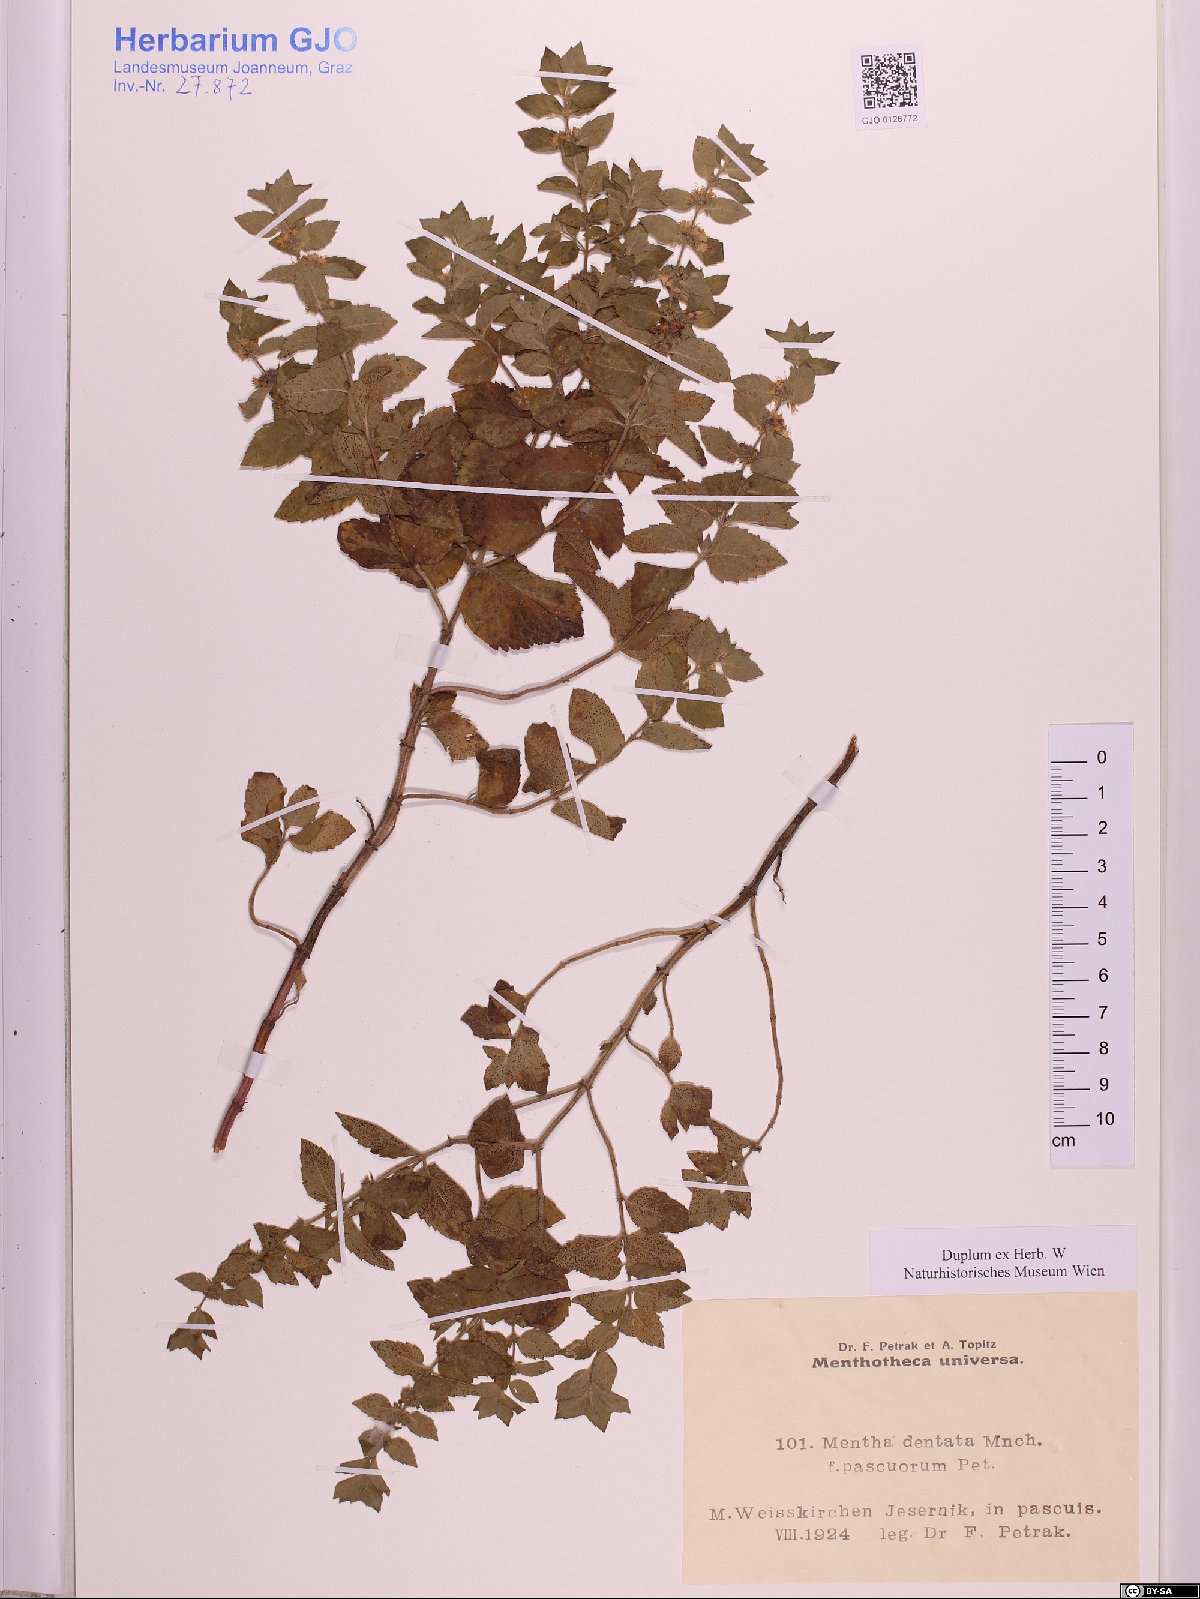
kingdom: Plantae
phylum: Tracheophyta
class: Magnoliopsida
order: Lamiales
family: Lamiaceae
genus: Mentha
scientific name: Mentha gracilis
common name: Bushy mint
